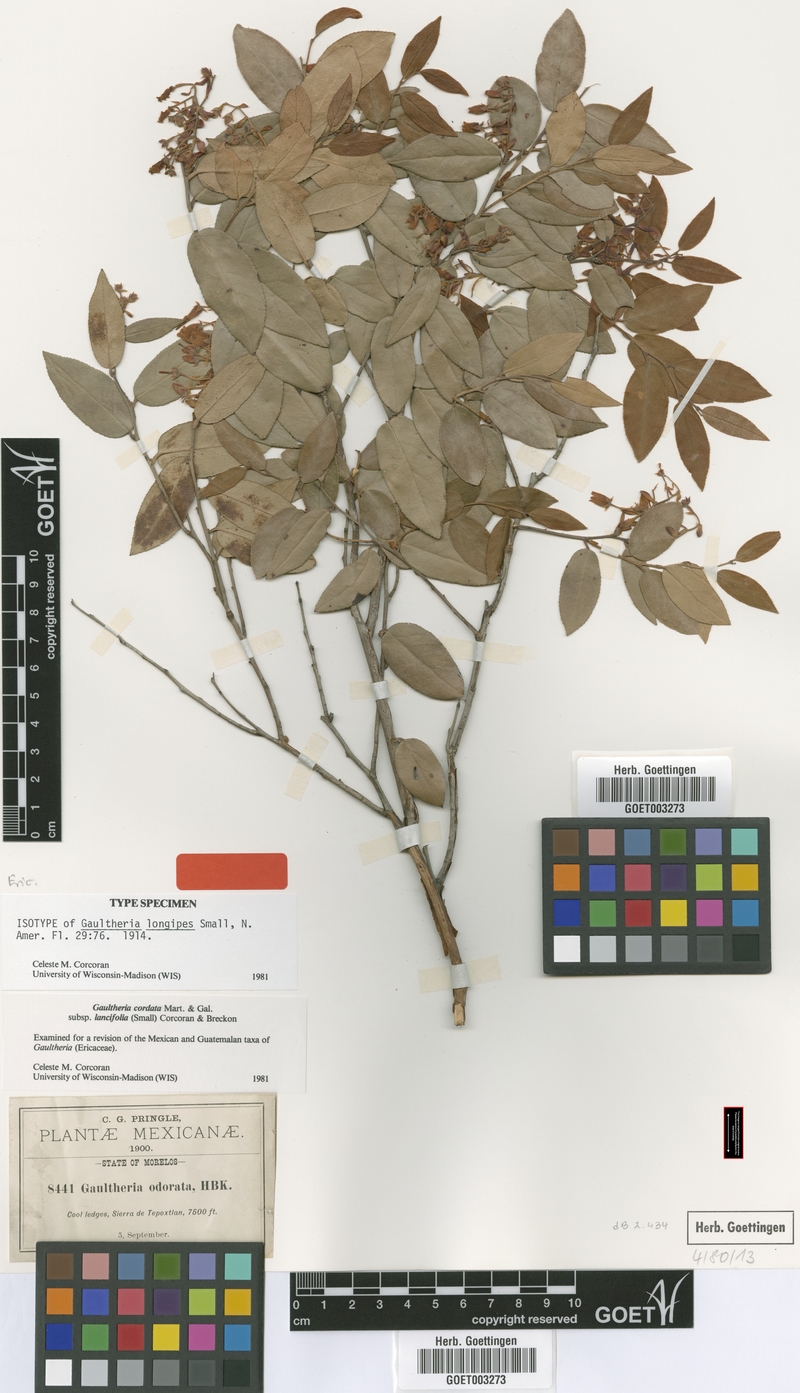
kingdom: Plantae
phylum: Tracheophyta
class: Magnoliopsida
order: Ericales
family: Ericaceae
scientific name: Ericaceae
